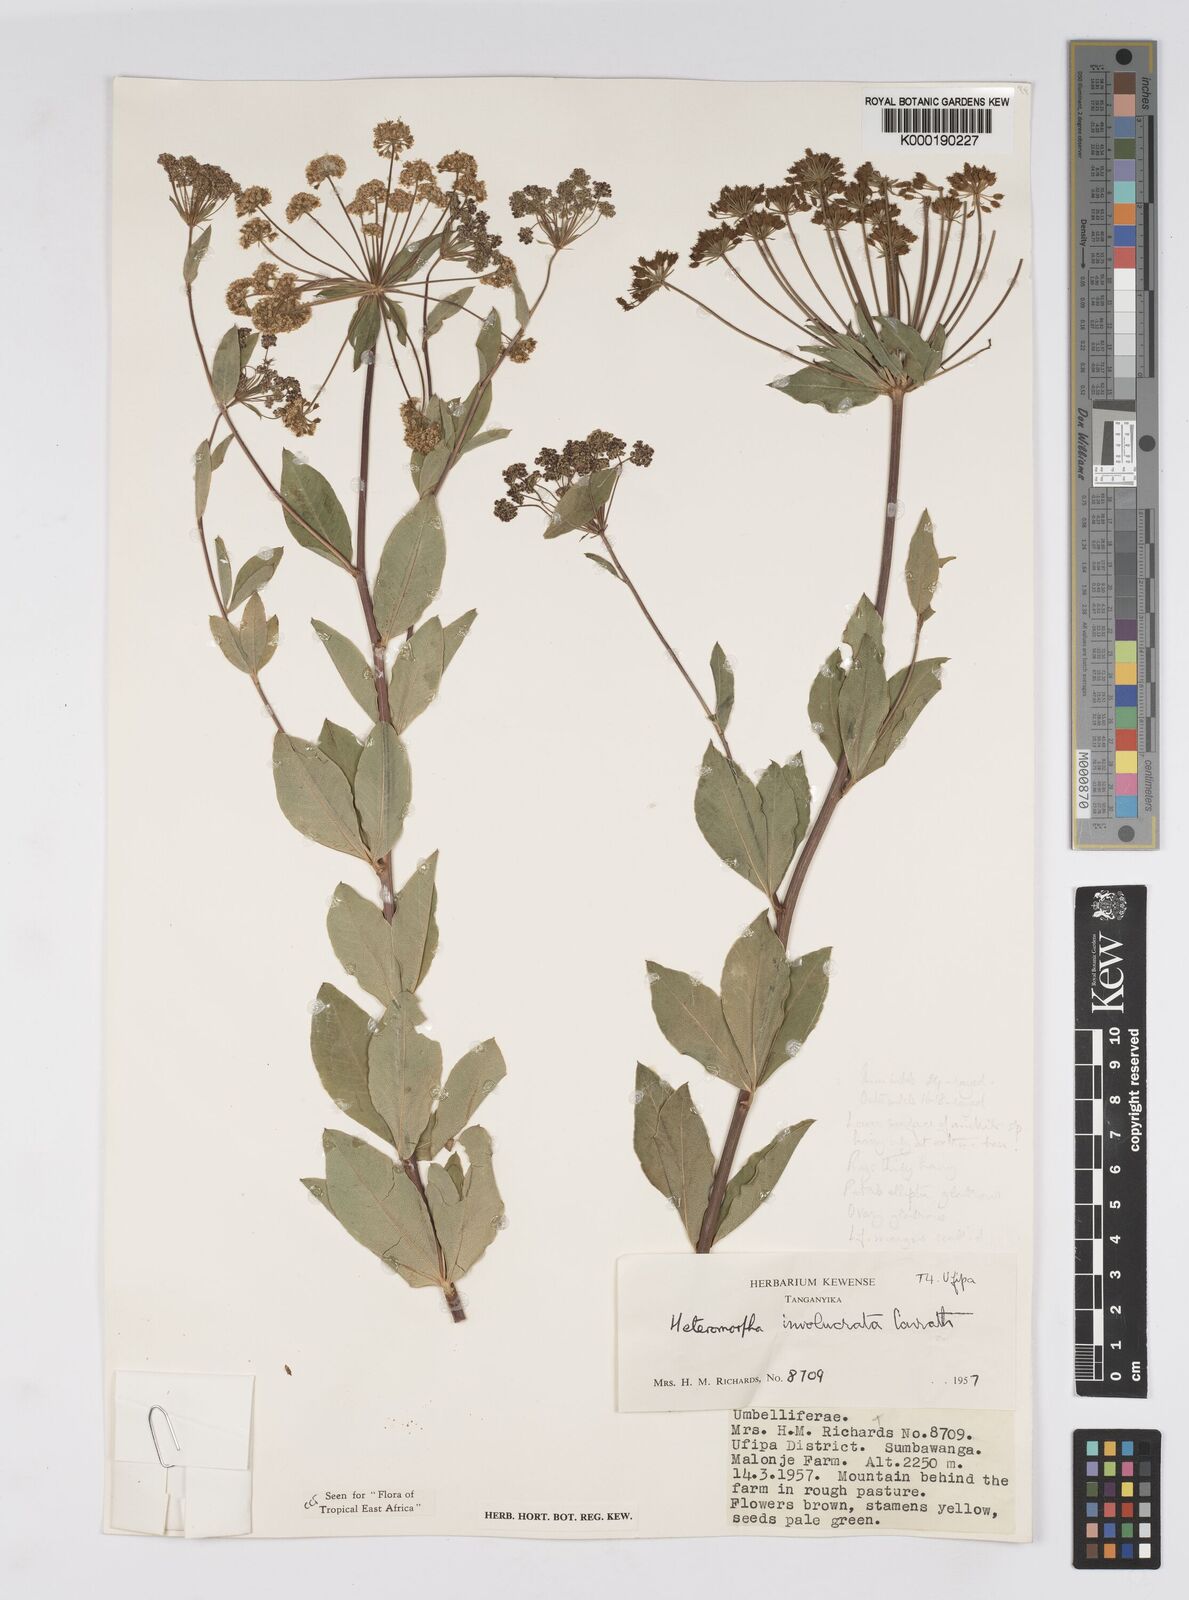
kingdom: Plantae
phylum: Tracheophyta
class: Magnoliopsida
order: Apiales
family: Apiaceae
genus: Heteromorpha
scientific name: Heteromorpha involucrata
